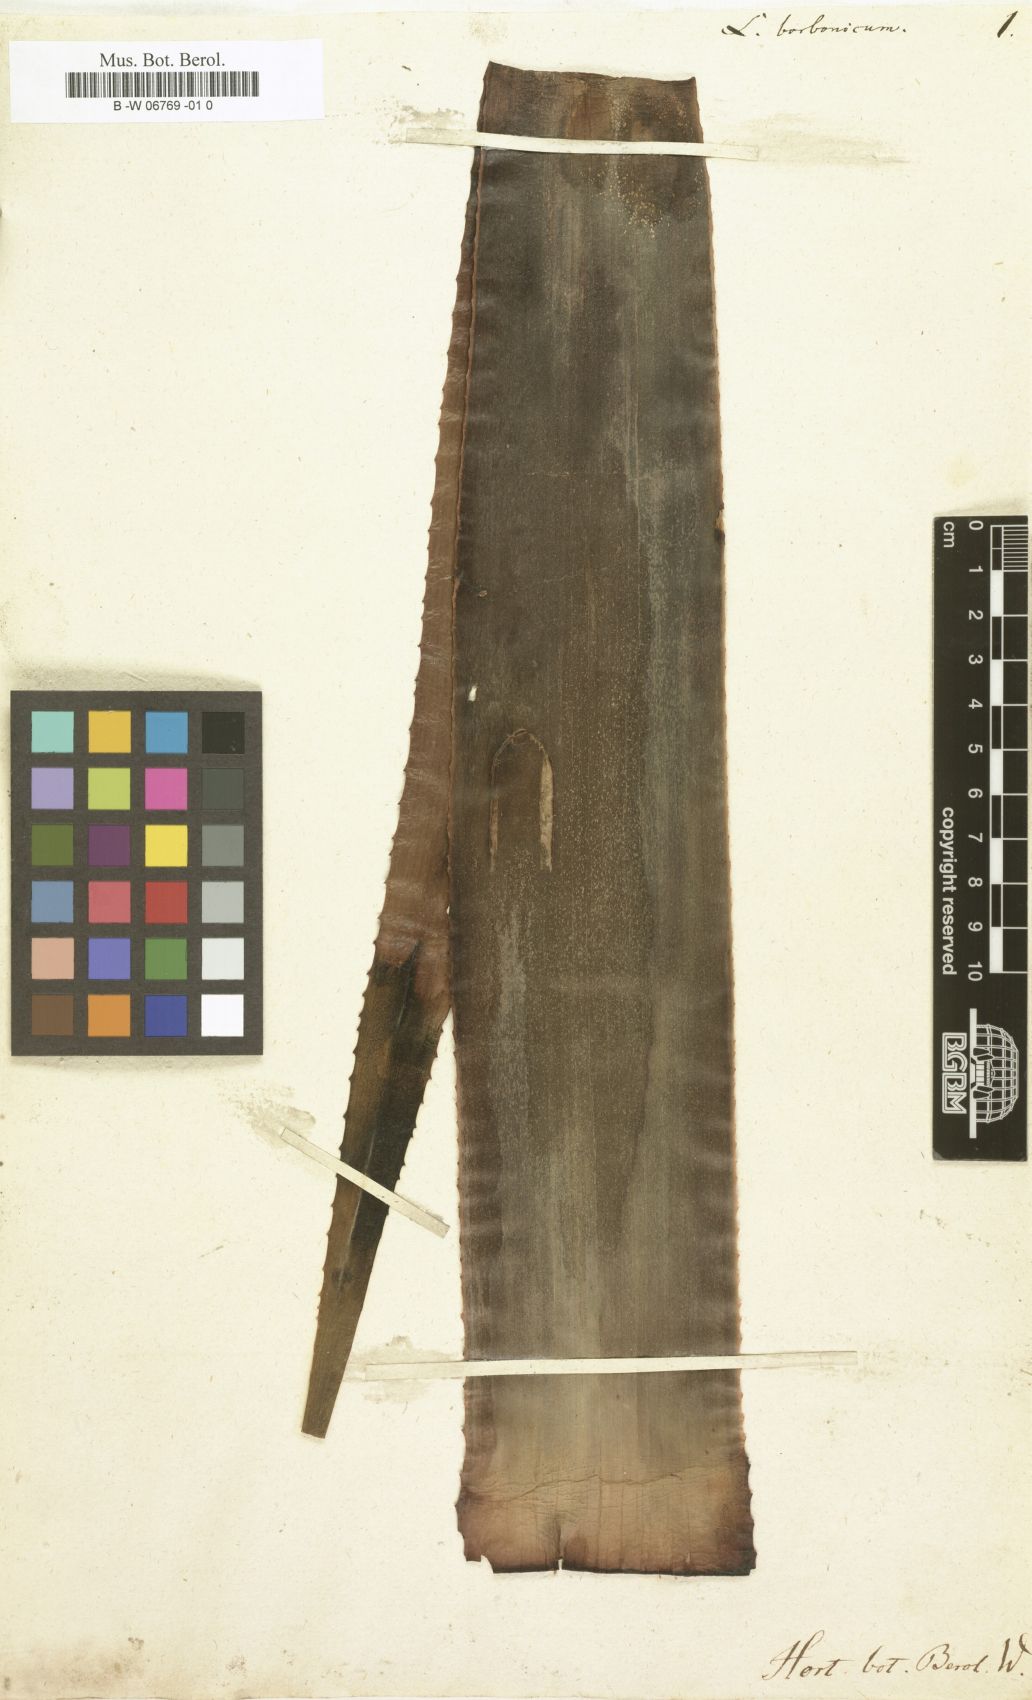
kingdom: Plantae
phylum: Tracheophyta
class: Liliopsida
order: Asparagales
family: Asphodelaceae
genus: Aloe
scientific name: Aloe purpurea
